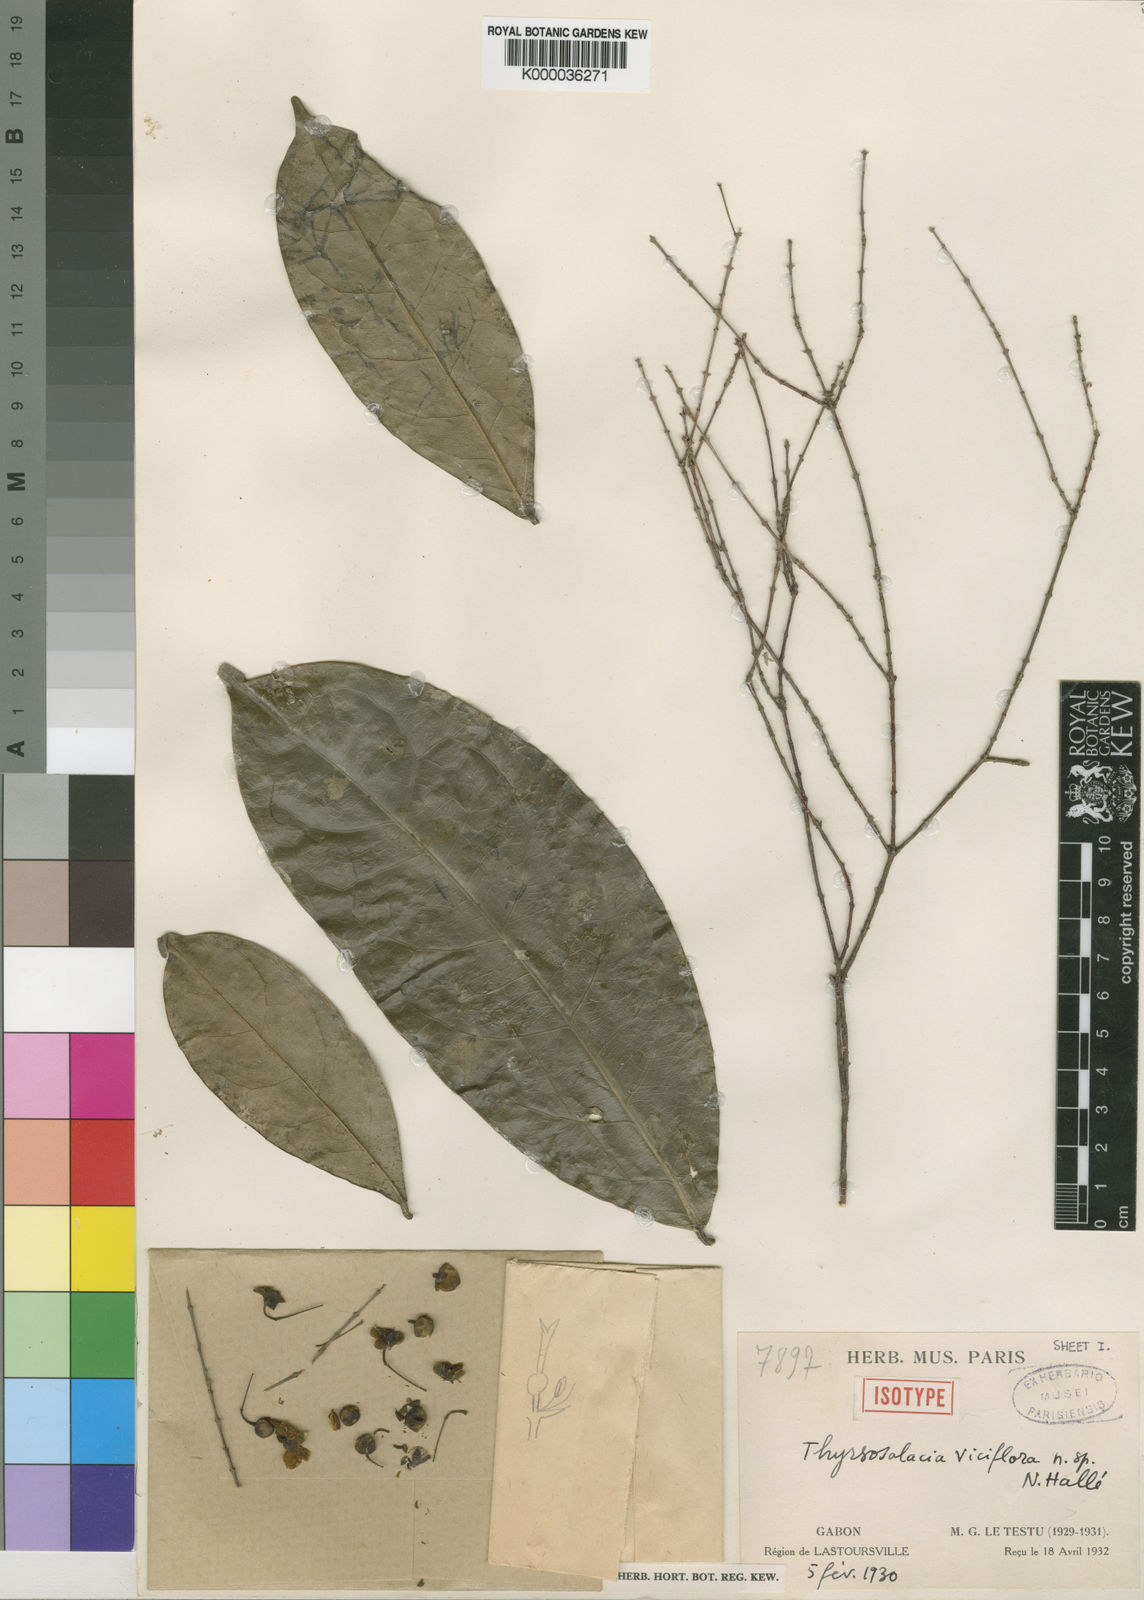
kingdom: Plantae
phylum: Tracheophyta
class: Magnoliopsida
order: Celastrales
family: Celastraceae
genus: Thyrsosalacia
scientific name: Thyrsosalacia
